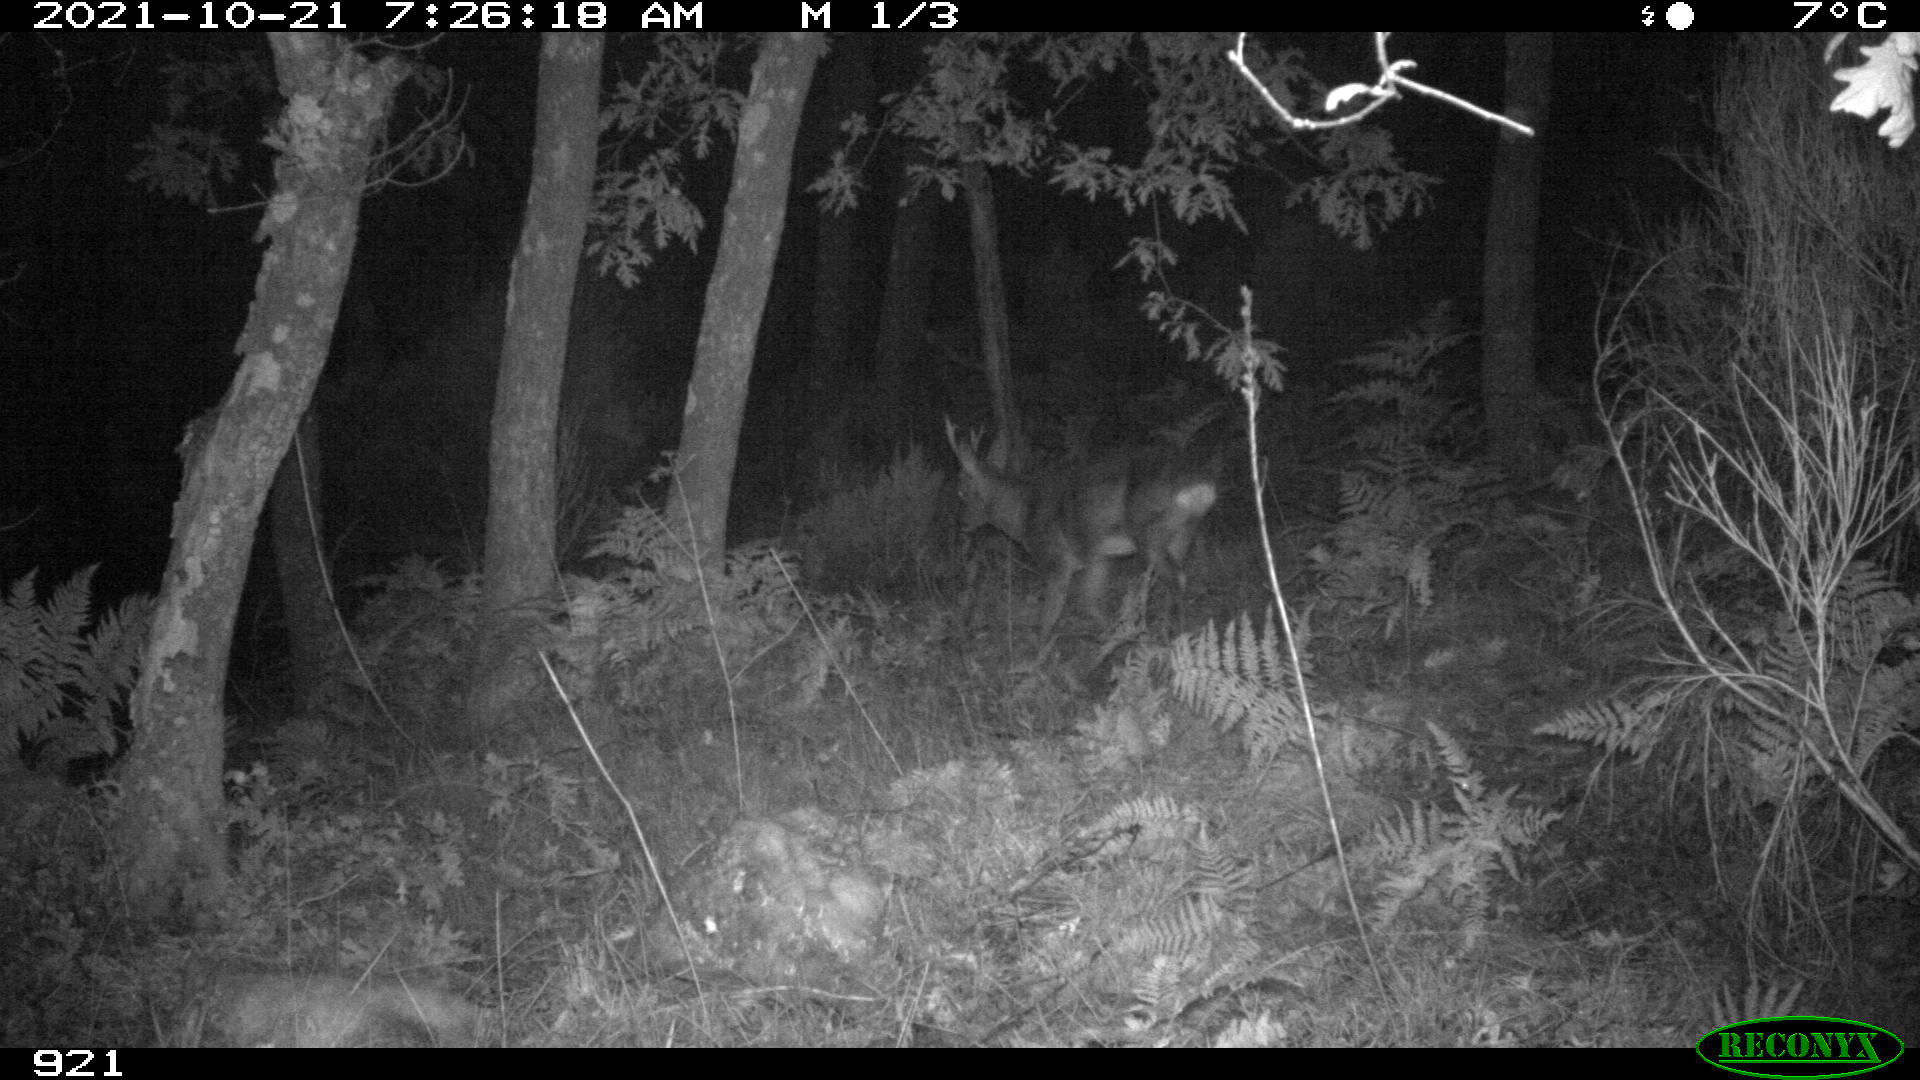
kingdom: Animalia
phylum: Chordata
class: Mammalia
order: Artiodactyla
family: Cervidae
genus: Capreolus
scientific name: Capreolus capreolus
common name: Western roe deer
